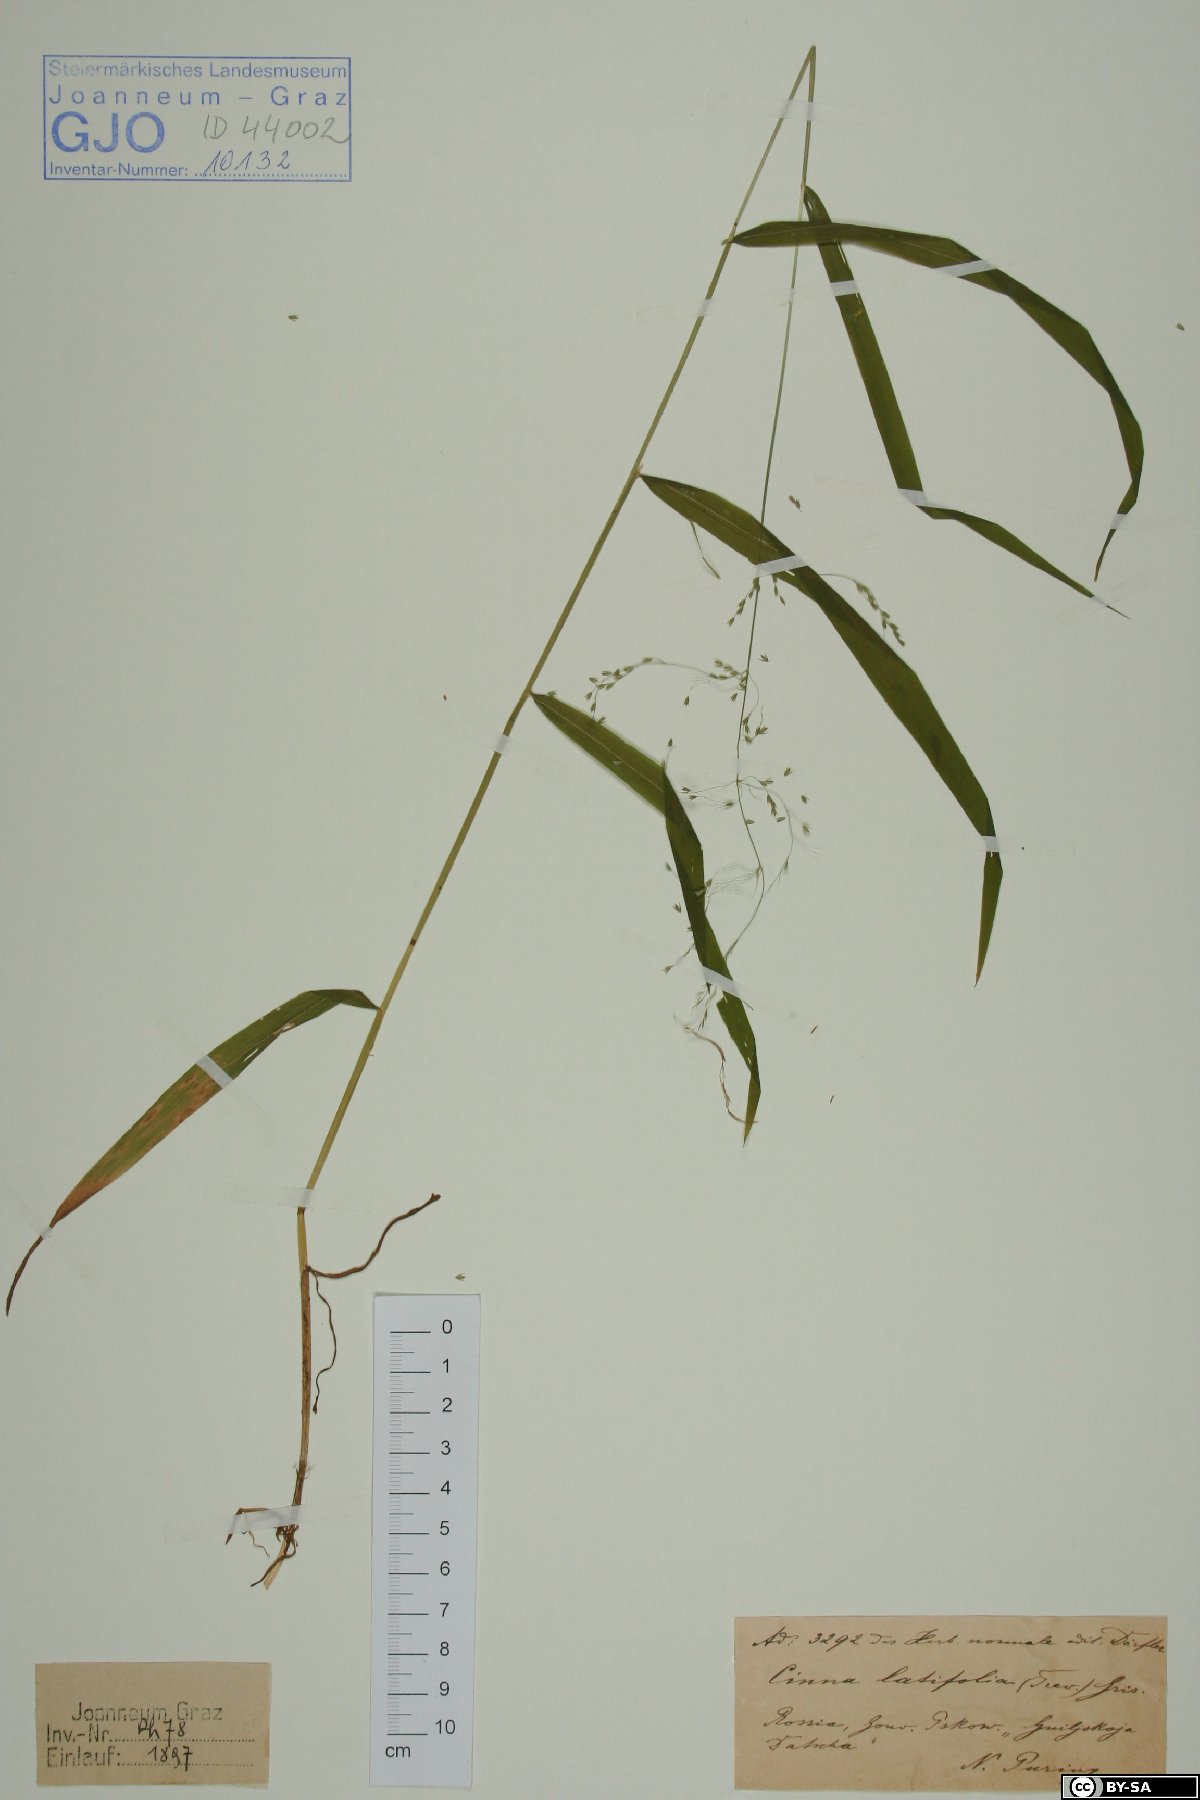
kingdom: Plantae
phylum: Tracheophyta
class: Liliopsida
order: Poales
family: Poaceae
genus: Cinna
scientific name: Cinna latifolia
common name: Drooping woodreed
